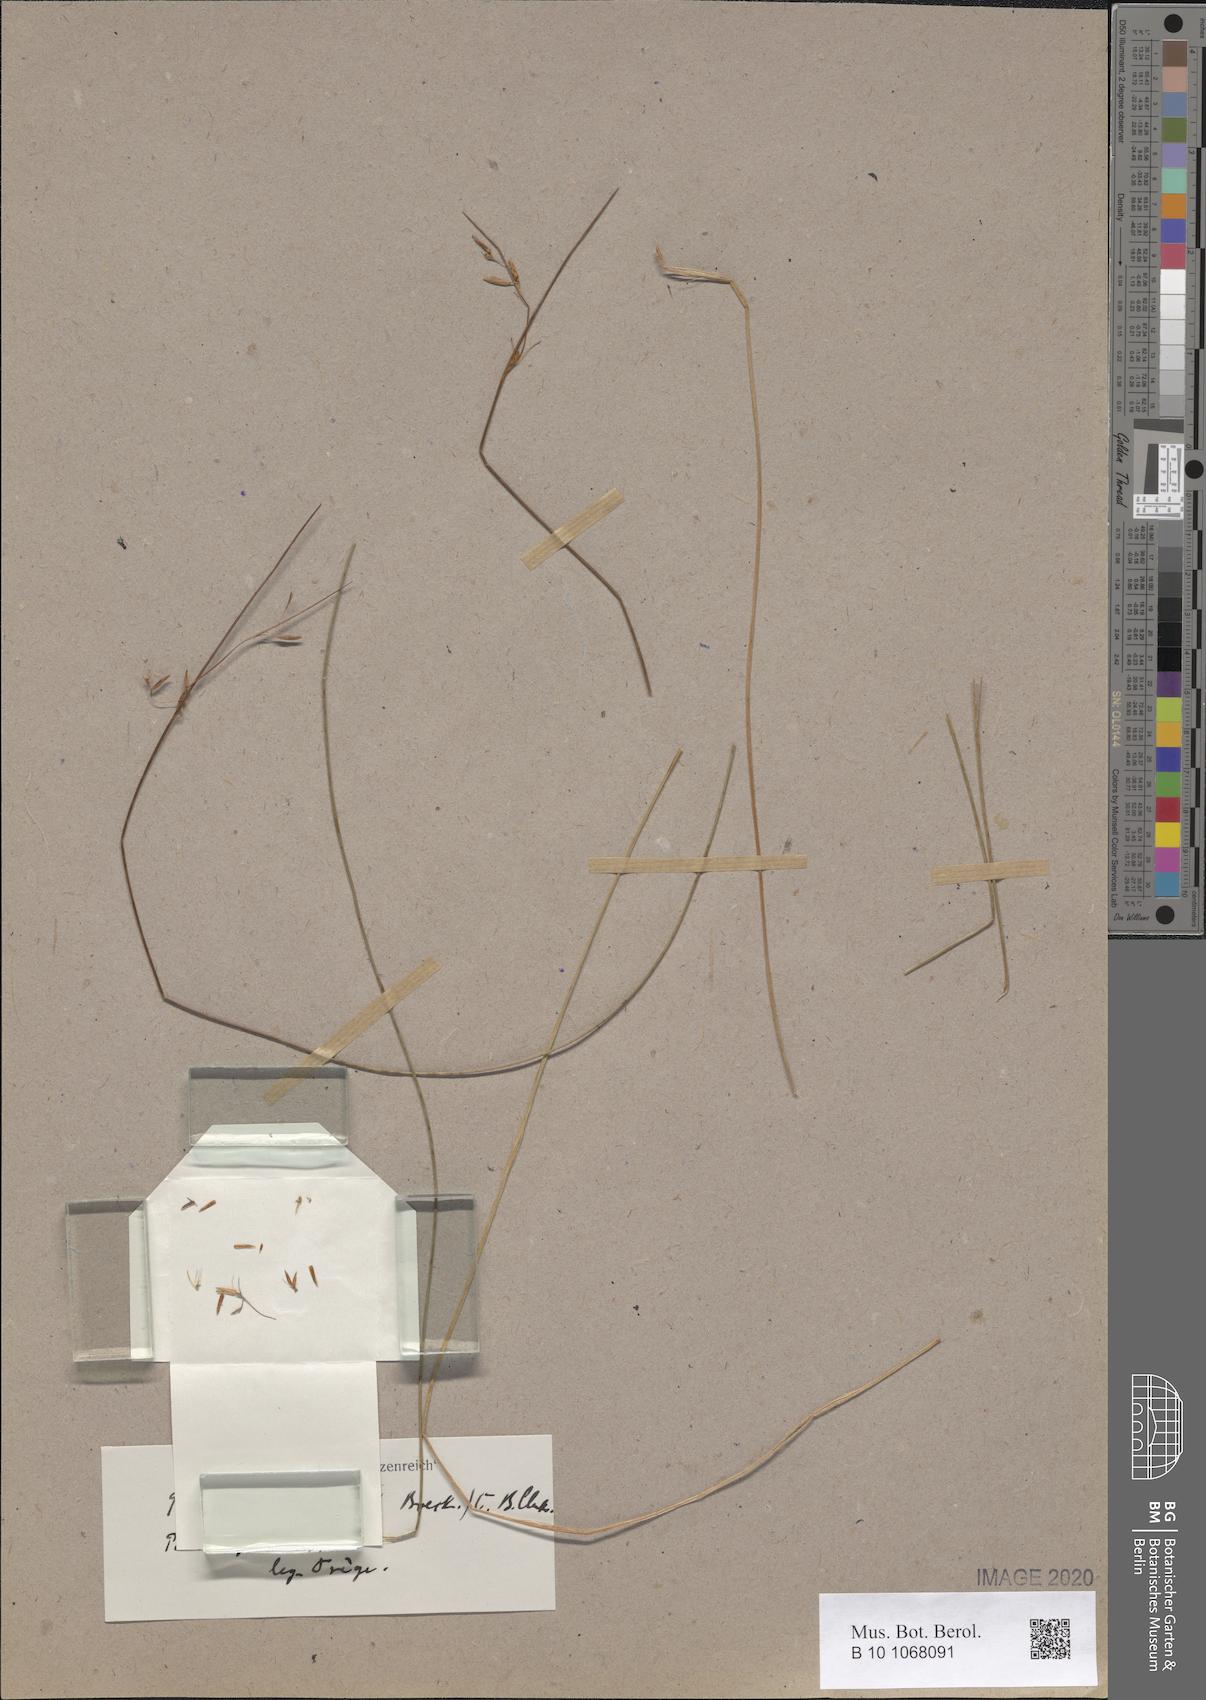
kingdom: Plantae
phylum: Tracheophyta
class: Liliopsida
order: Poales
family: Cyperaceae
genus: Schoenus
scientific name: Schoenus dregeanus
